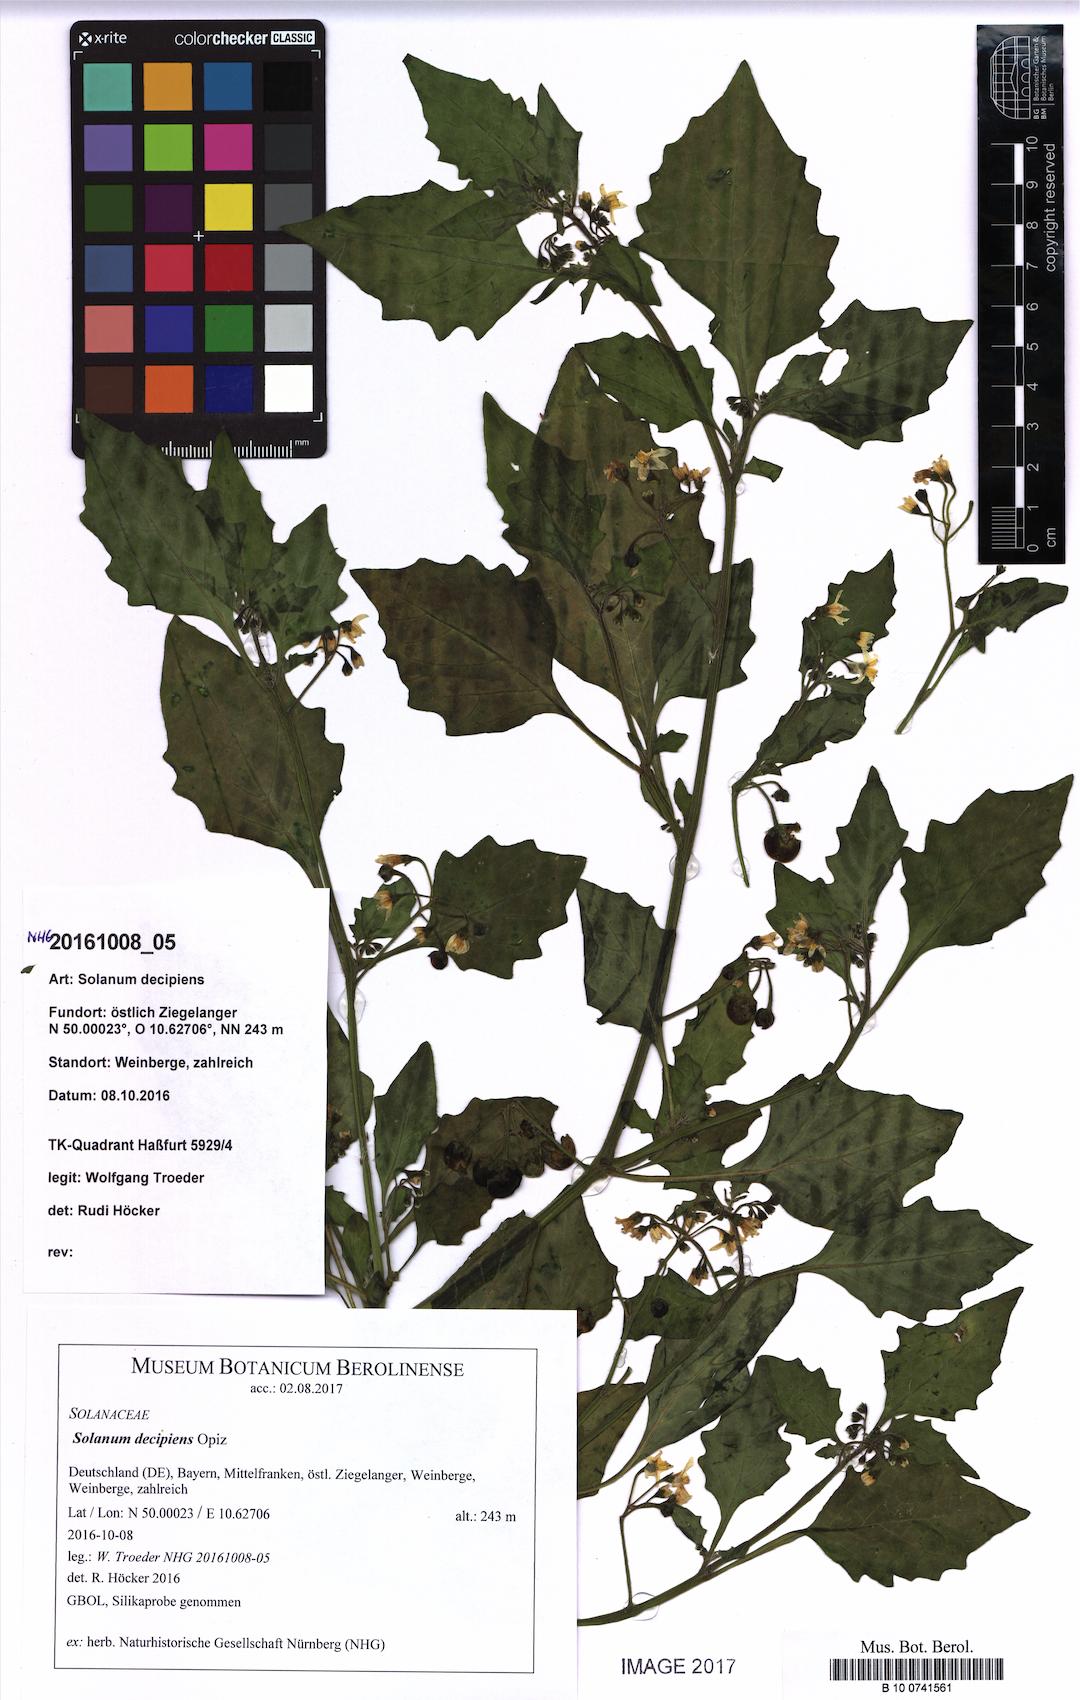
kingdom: Plantae
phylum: Tracheophyta
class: Magnoliopsida
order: Solanales
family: Solanaceae
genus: Solanum
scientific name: Solanum decipiens
